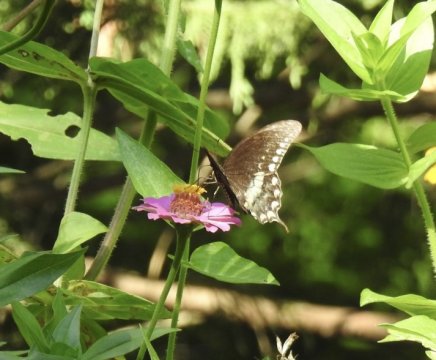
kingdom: Animalia
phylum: Arthropoda
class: Insecta
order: Lepidoptera
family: Papilionidae
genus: Pterourus
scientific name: Pterourus troilus
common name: Spicebush Swallowtail
